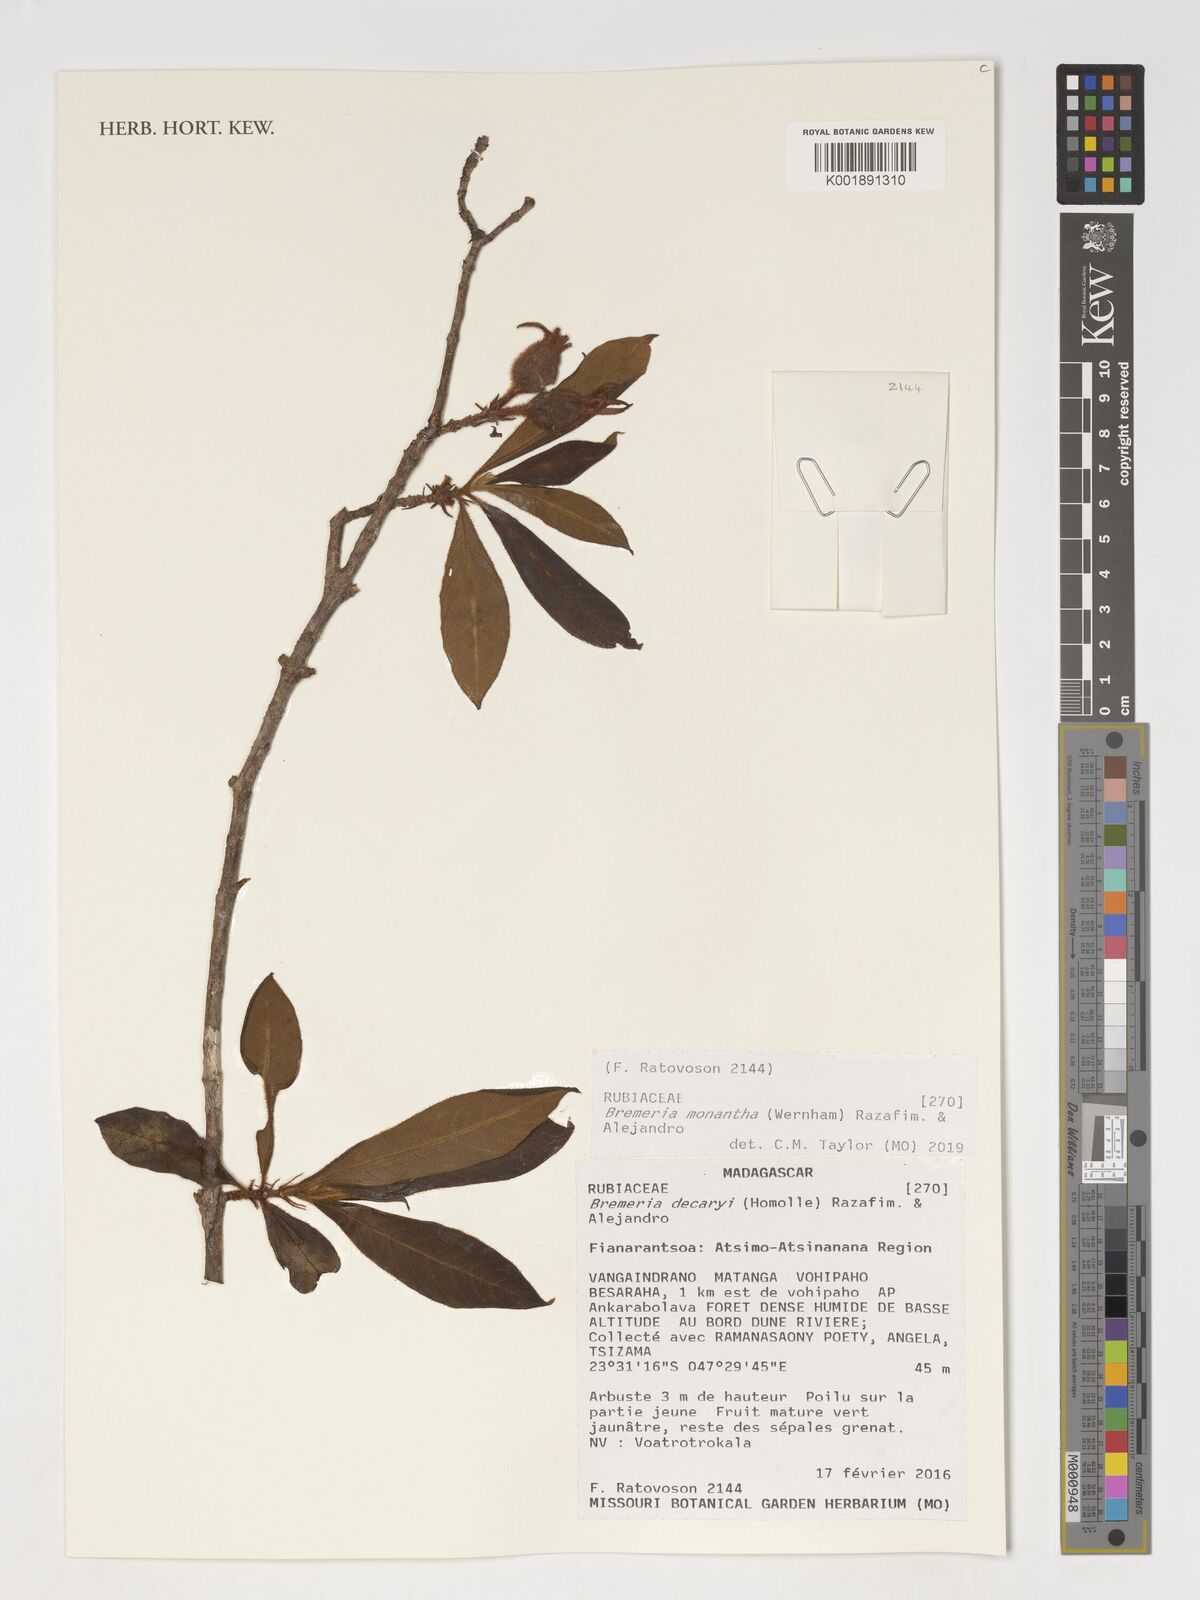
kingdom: Plantae
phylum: Tracheophyta
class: Magnoliopsida
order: Gentianales
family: Rubiaceae
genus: Bremeria
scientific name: Bremeria monantha
